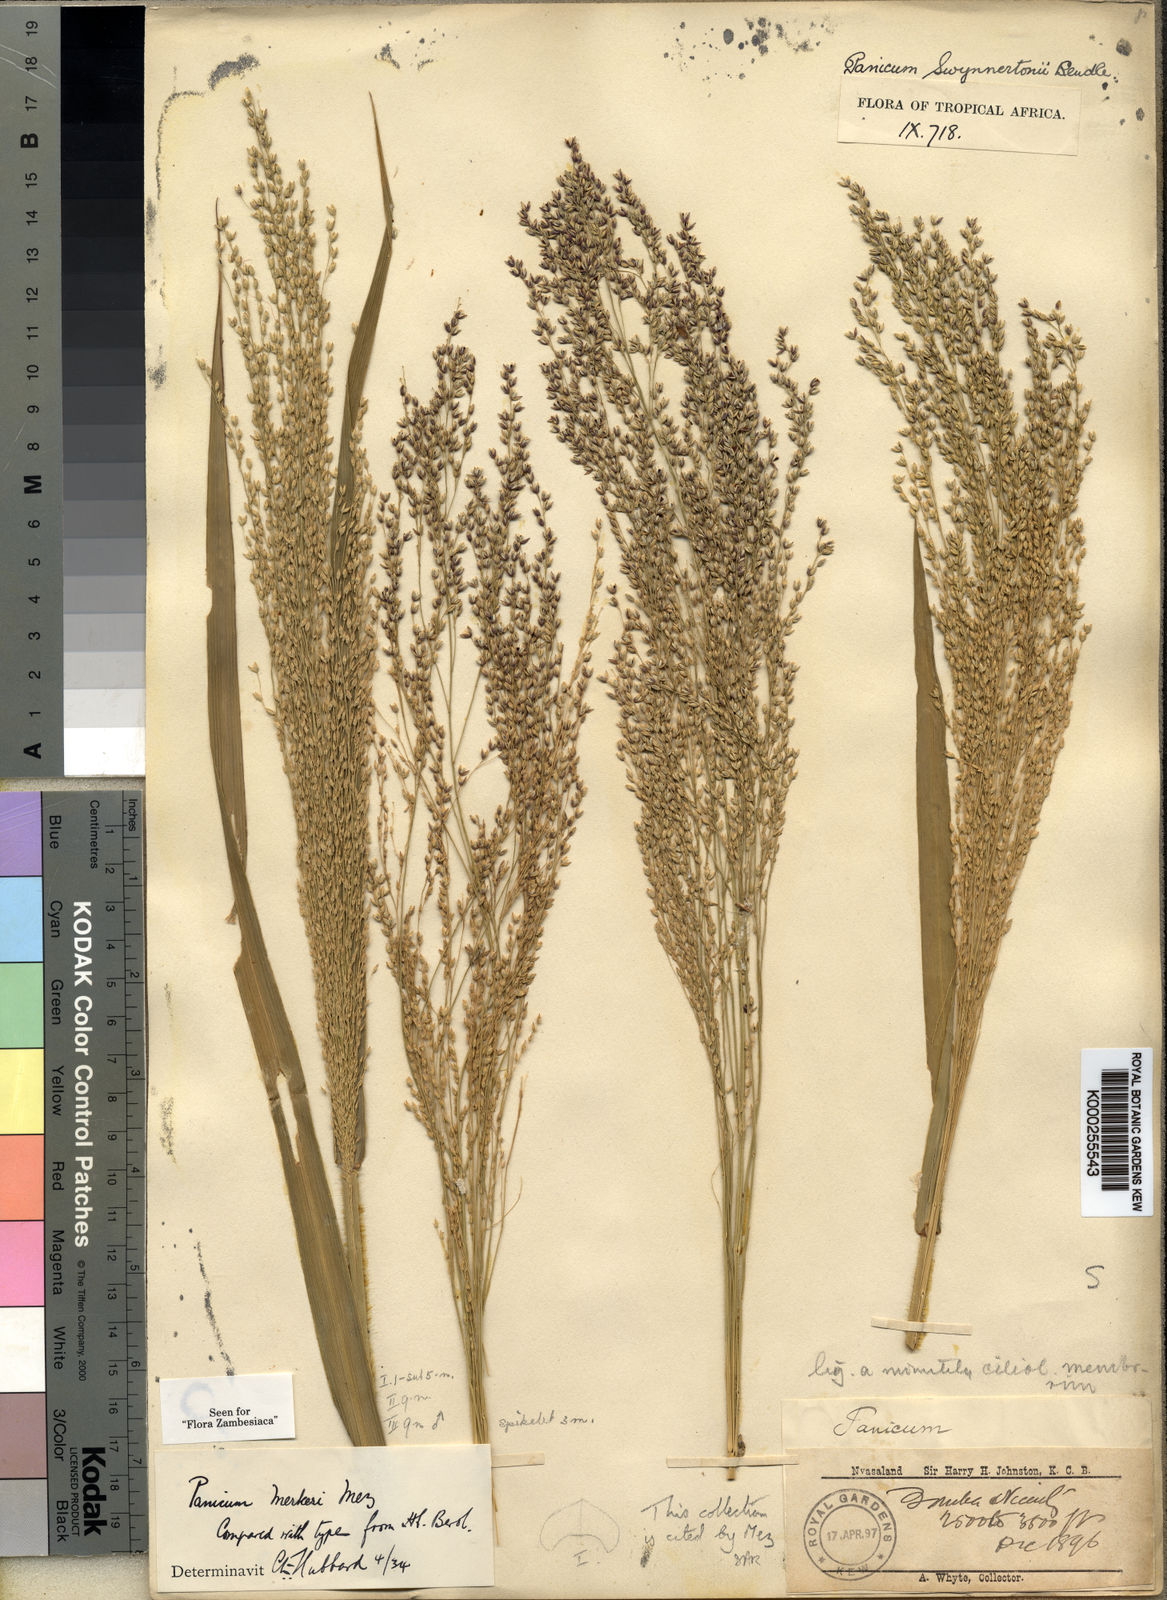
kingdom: Plantae
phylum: Tracheophyta
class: Liliopsida
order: Poales
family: Poaceae
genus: Panicum
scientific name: Panicum merkeri
